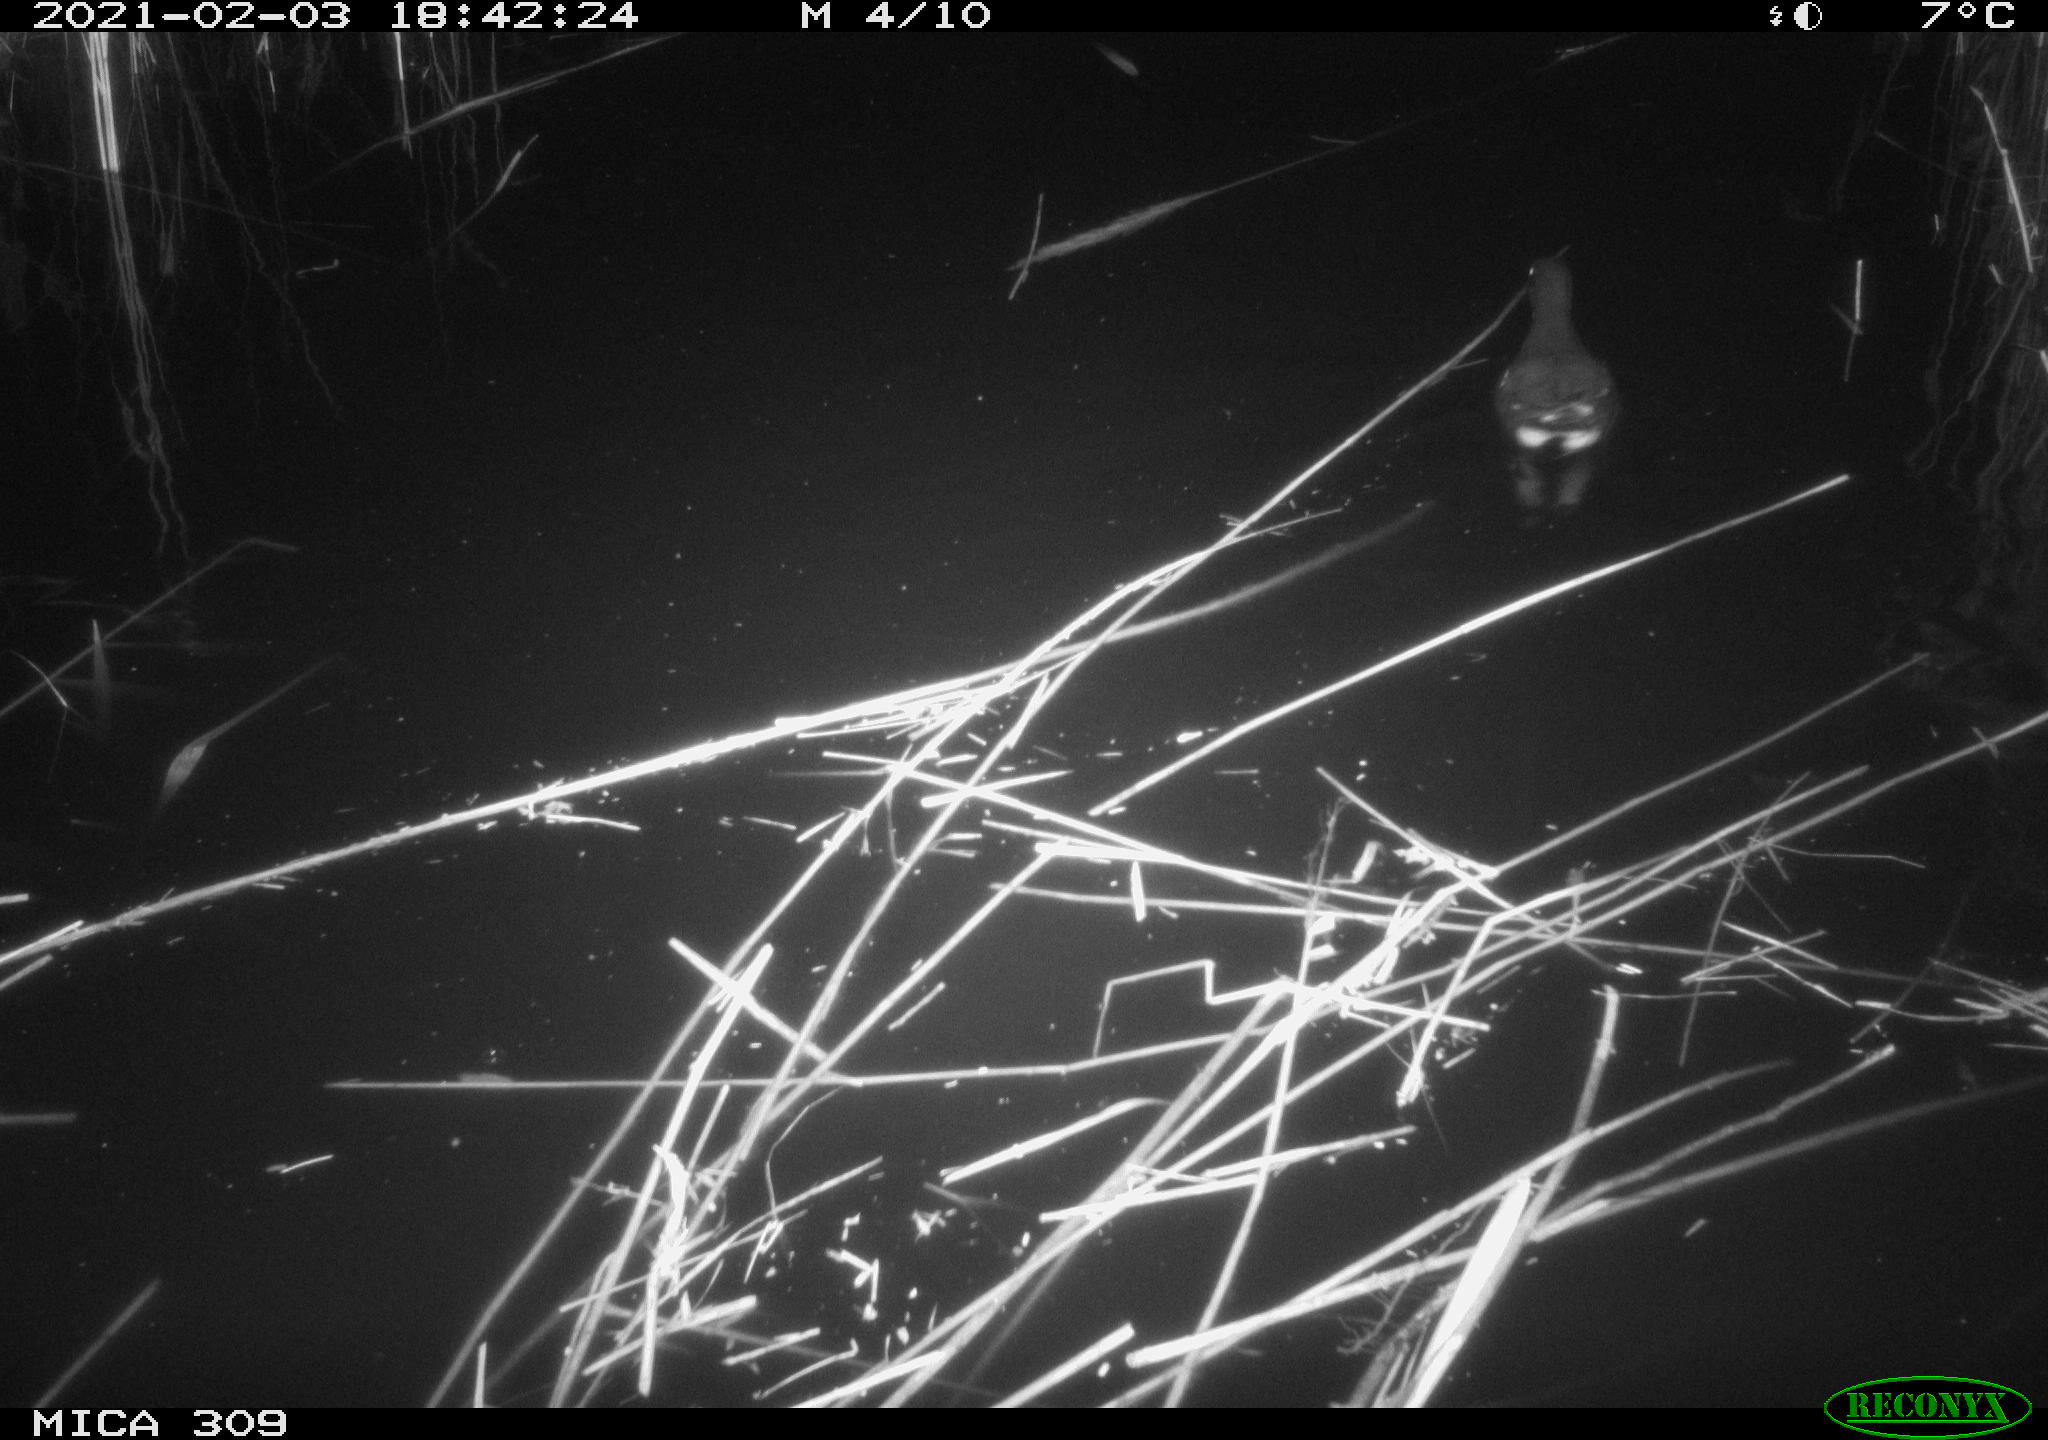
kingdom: Animalia
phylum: Chordata
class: Aves
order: Gruiformes
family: Rallidae
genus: Gallinula
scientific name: Gallinula chloropus
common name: Common moorhen
